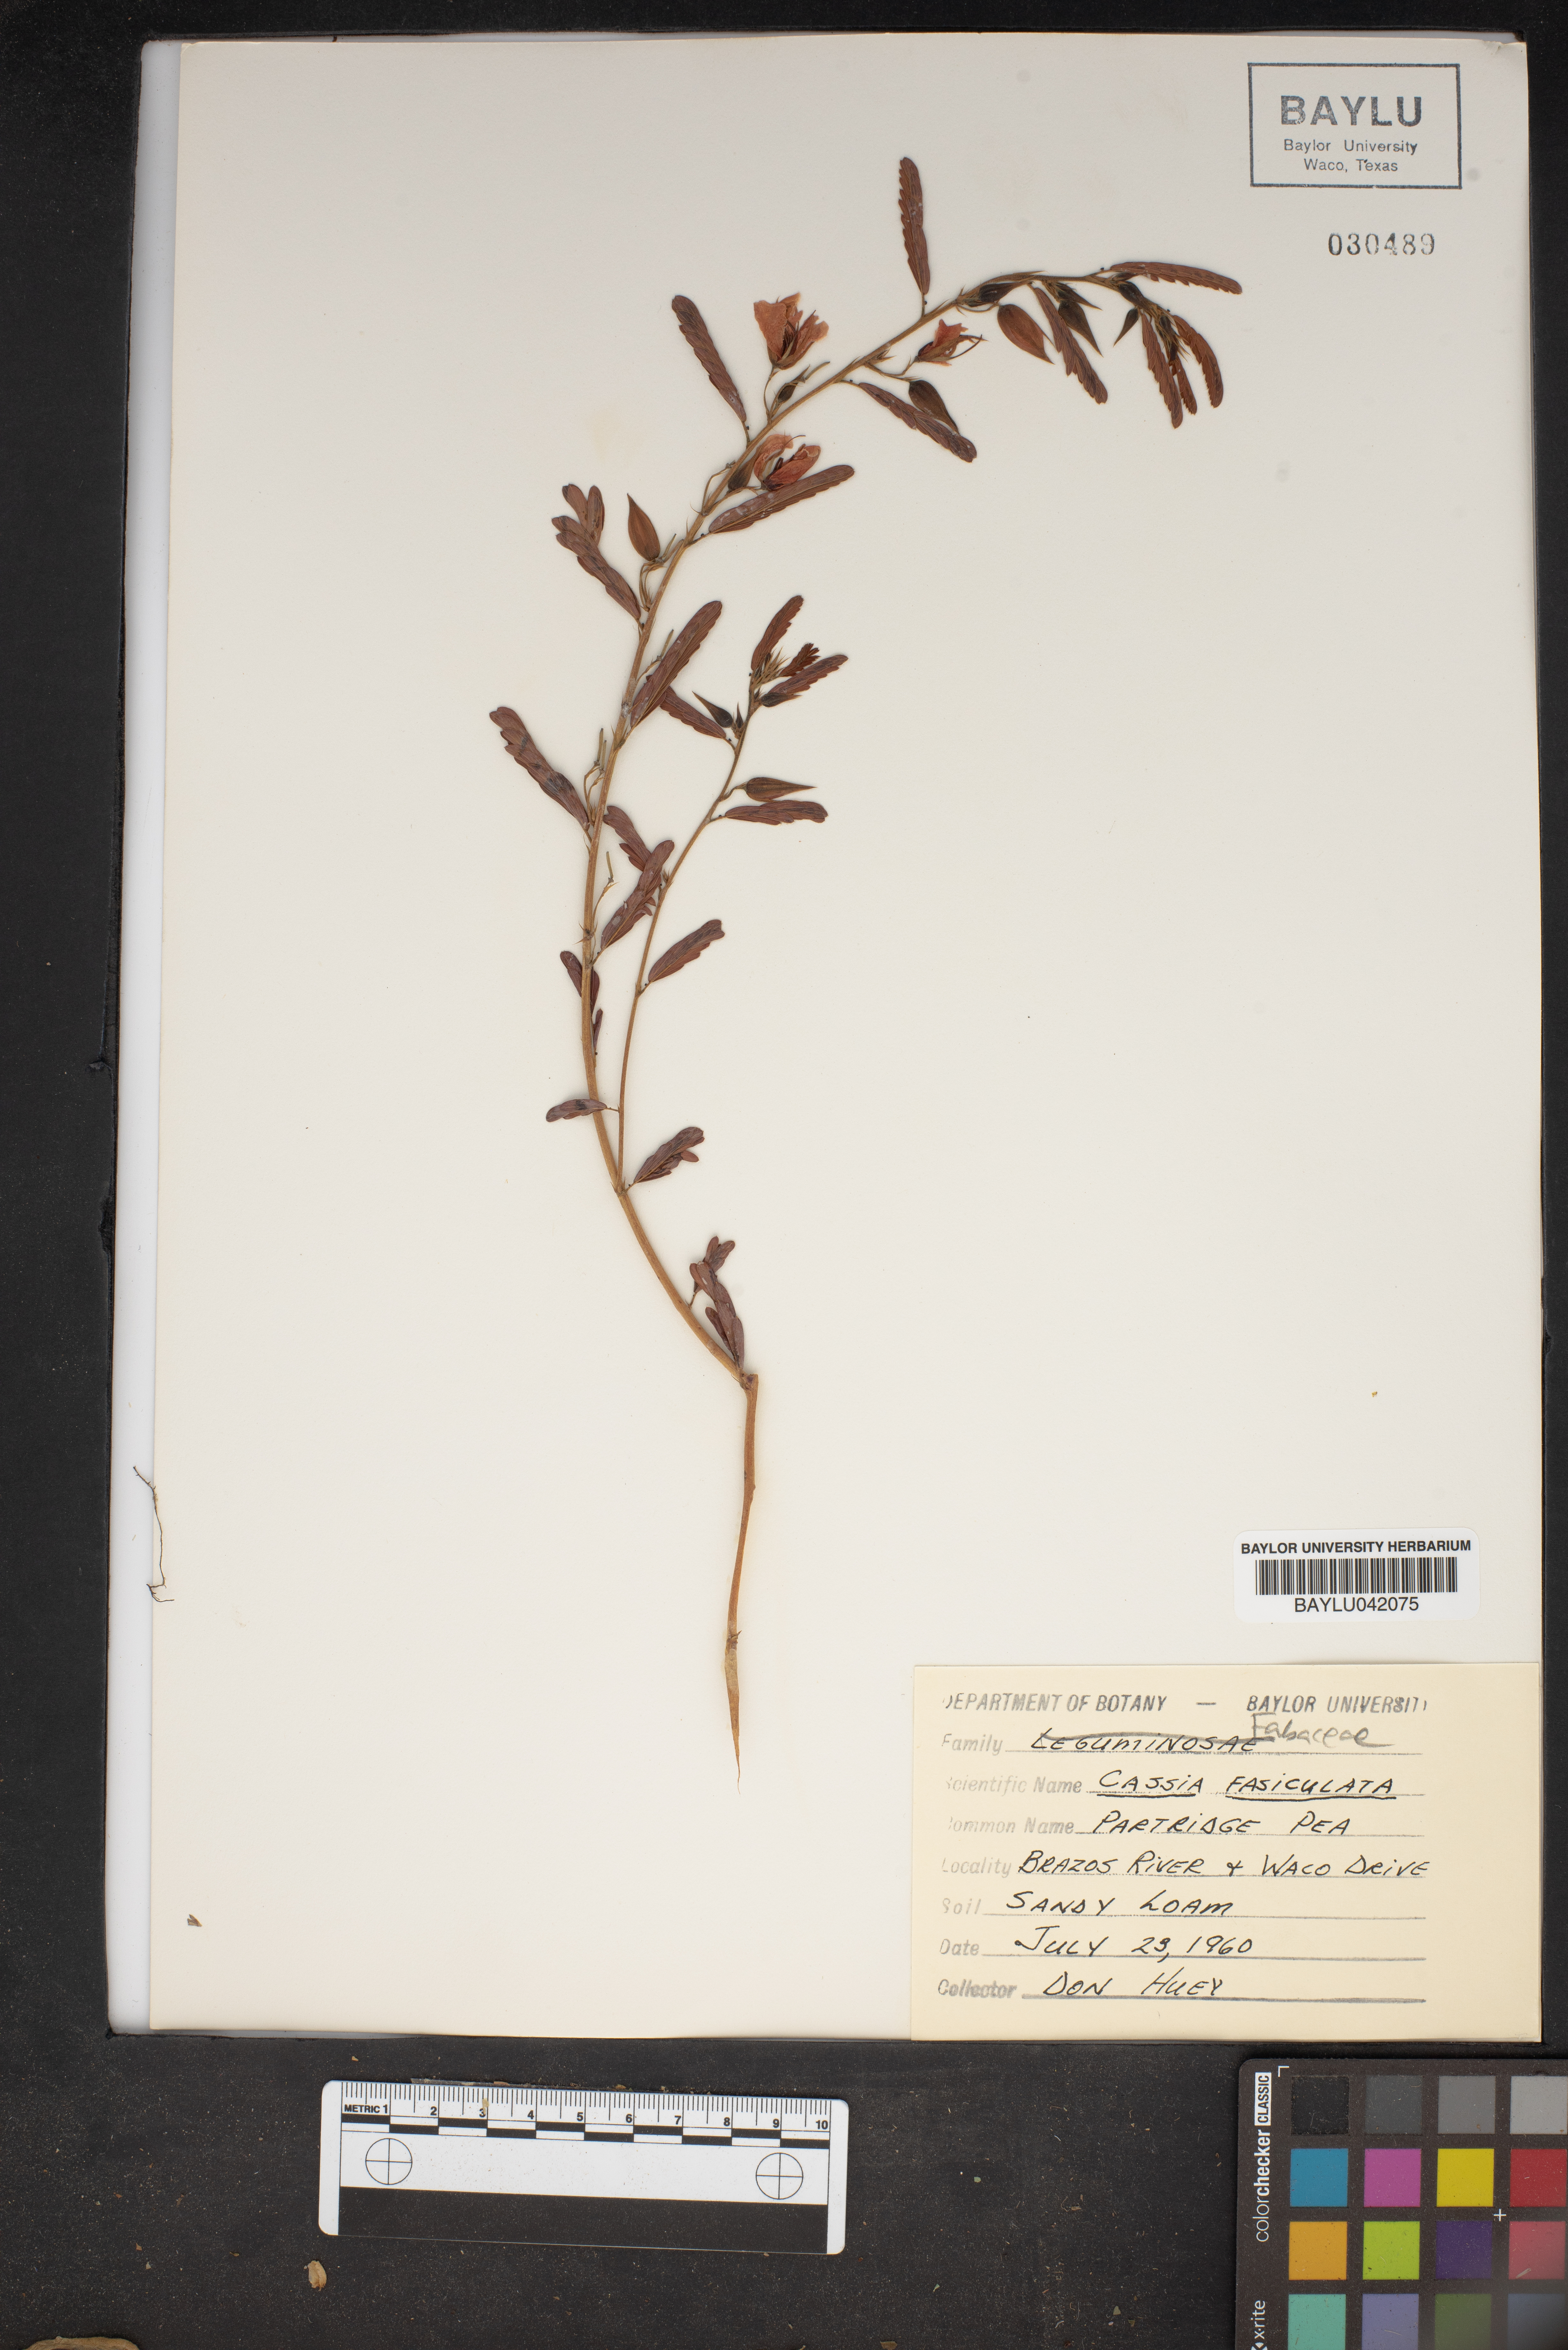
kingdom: Plantae
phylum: Tracheophyta
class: Magnoliopsida
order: Fabales
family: Fabaceae
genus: Chamaecrista
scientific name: Chamaecrista fasciculata
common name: Golden cassia
